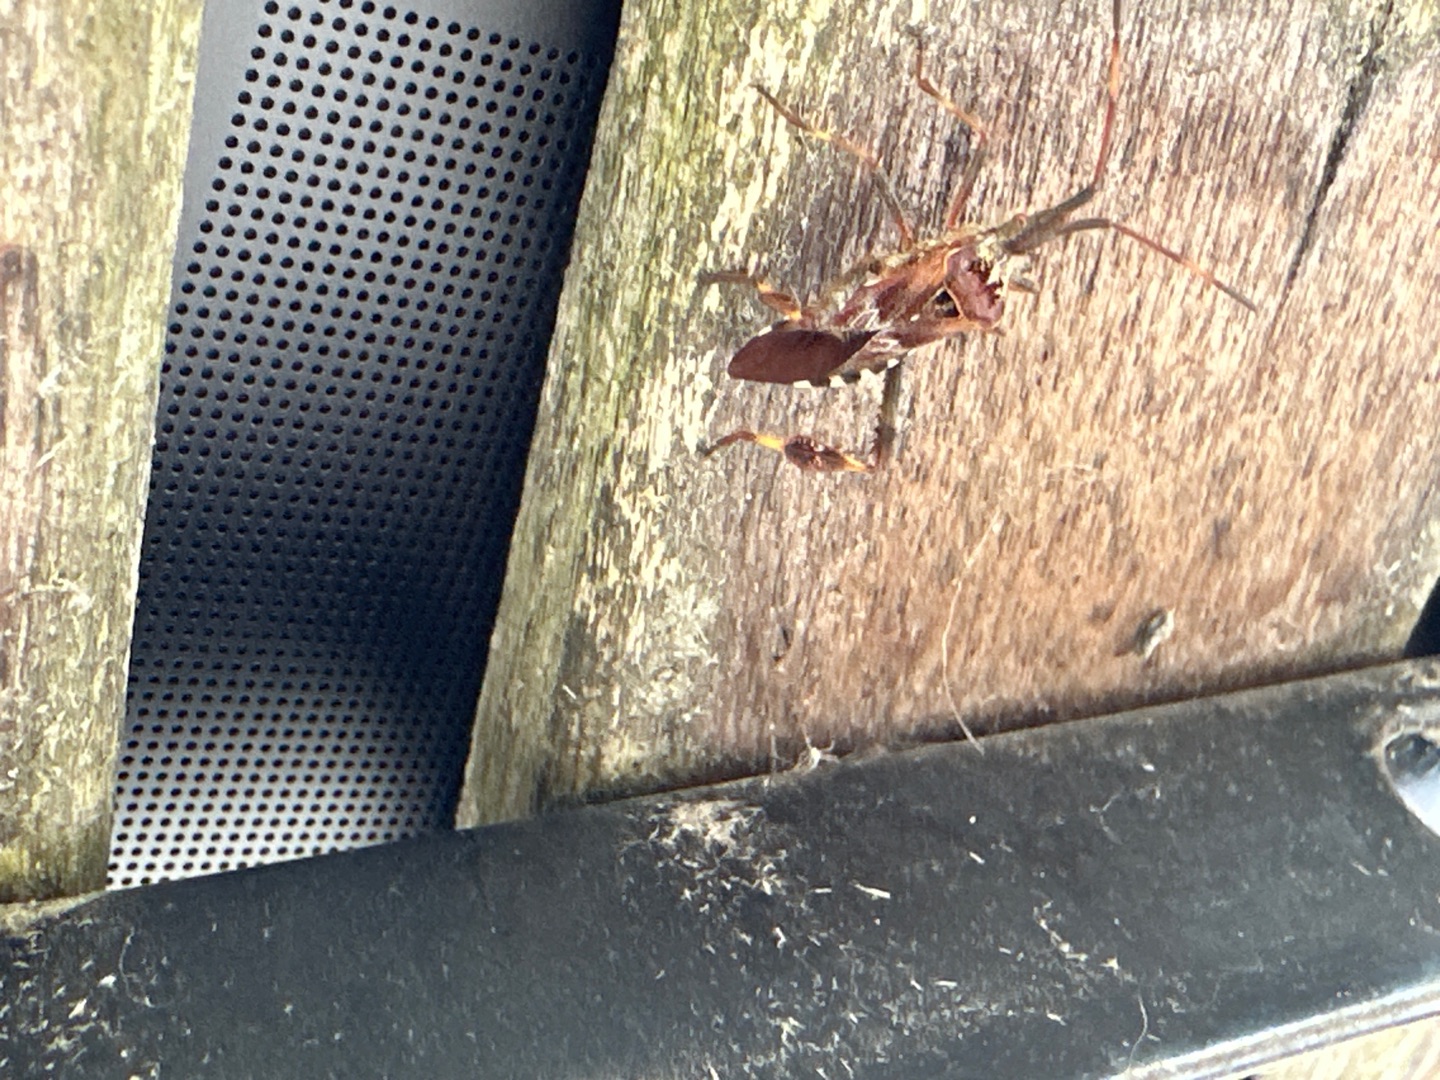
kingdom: Animalia
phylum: Arthropoda
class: Insecta
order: Hemiptera
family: Coreidae
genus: Leptoglossus
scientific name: Leptoglossus occidentalis
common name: Amerikansk fyrretæge
